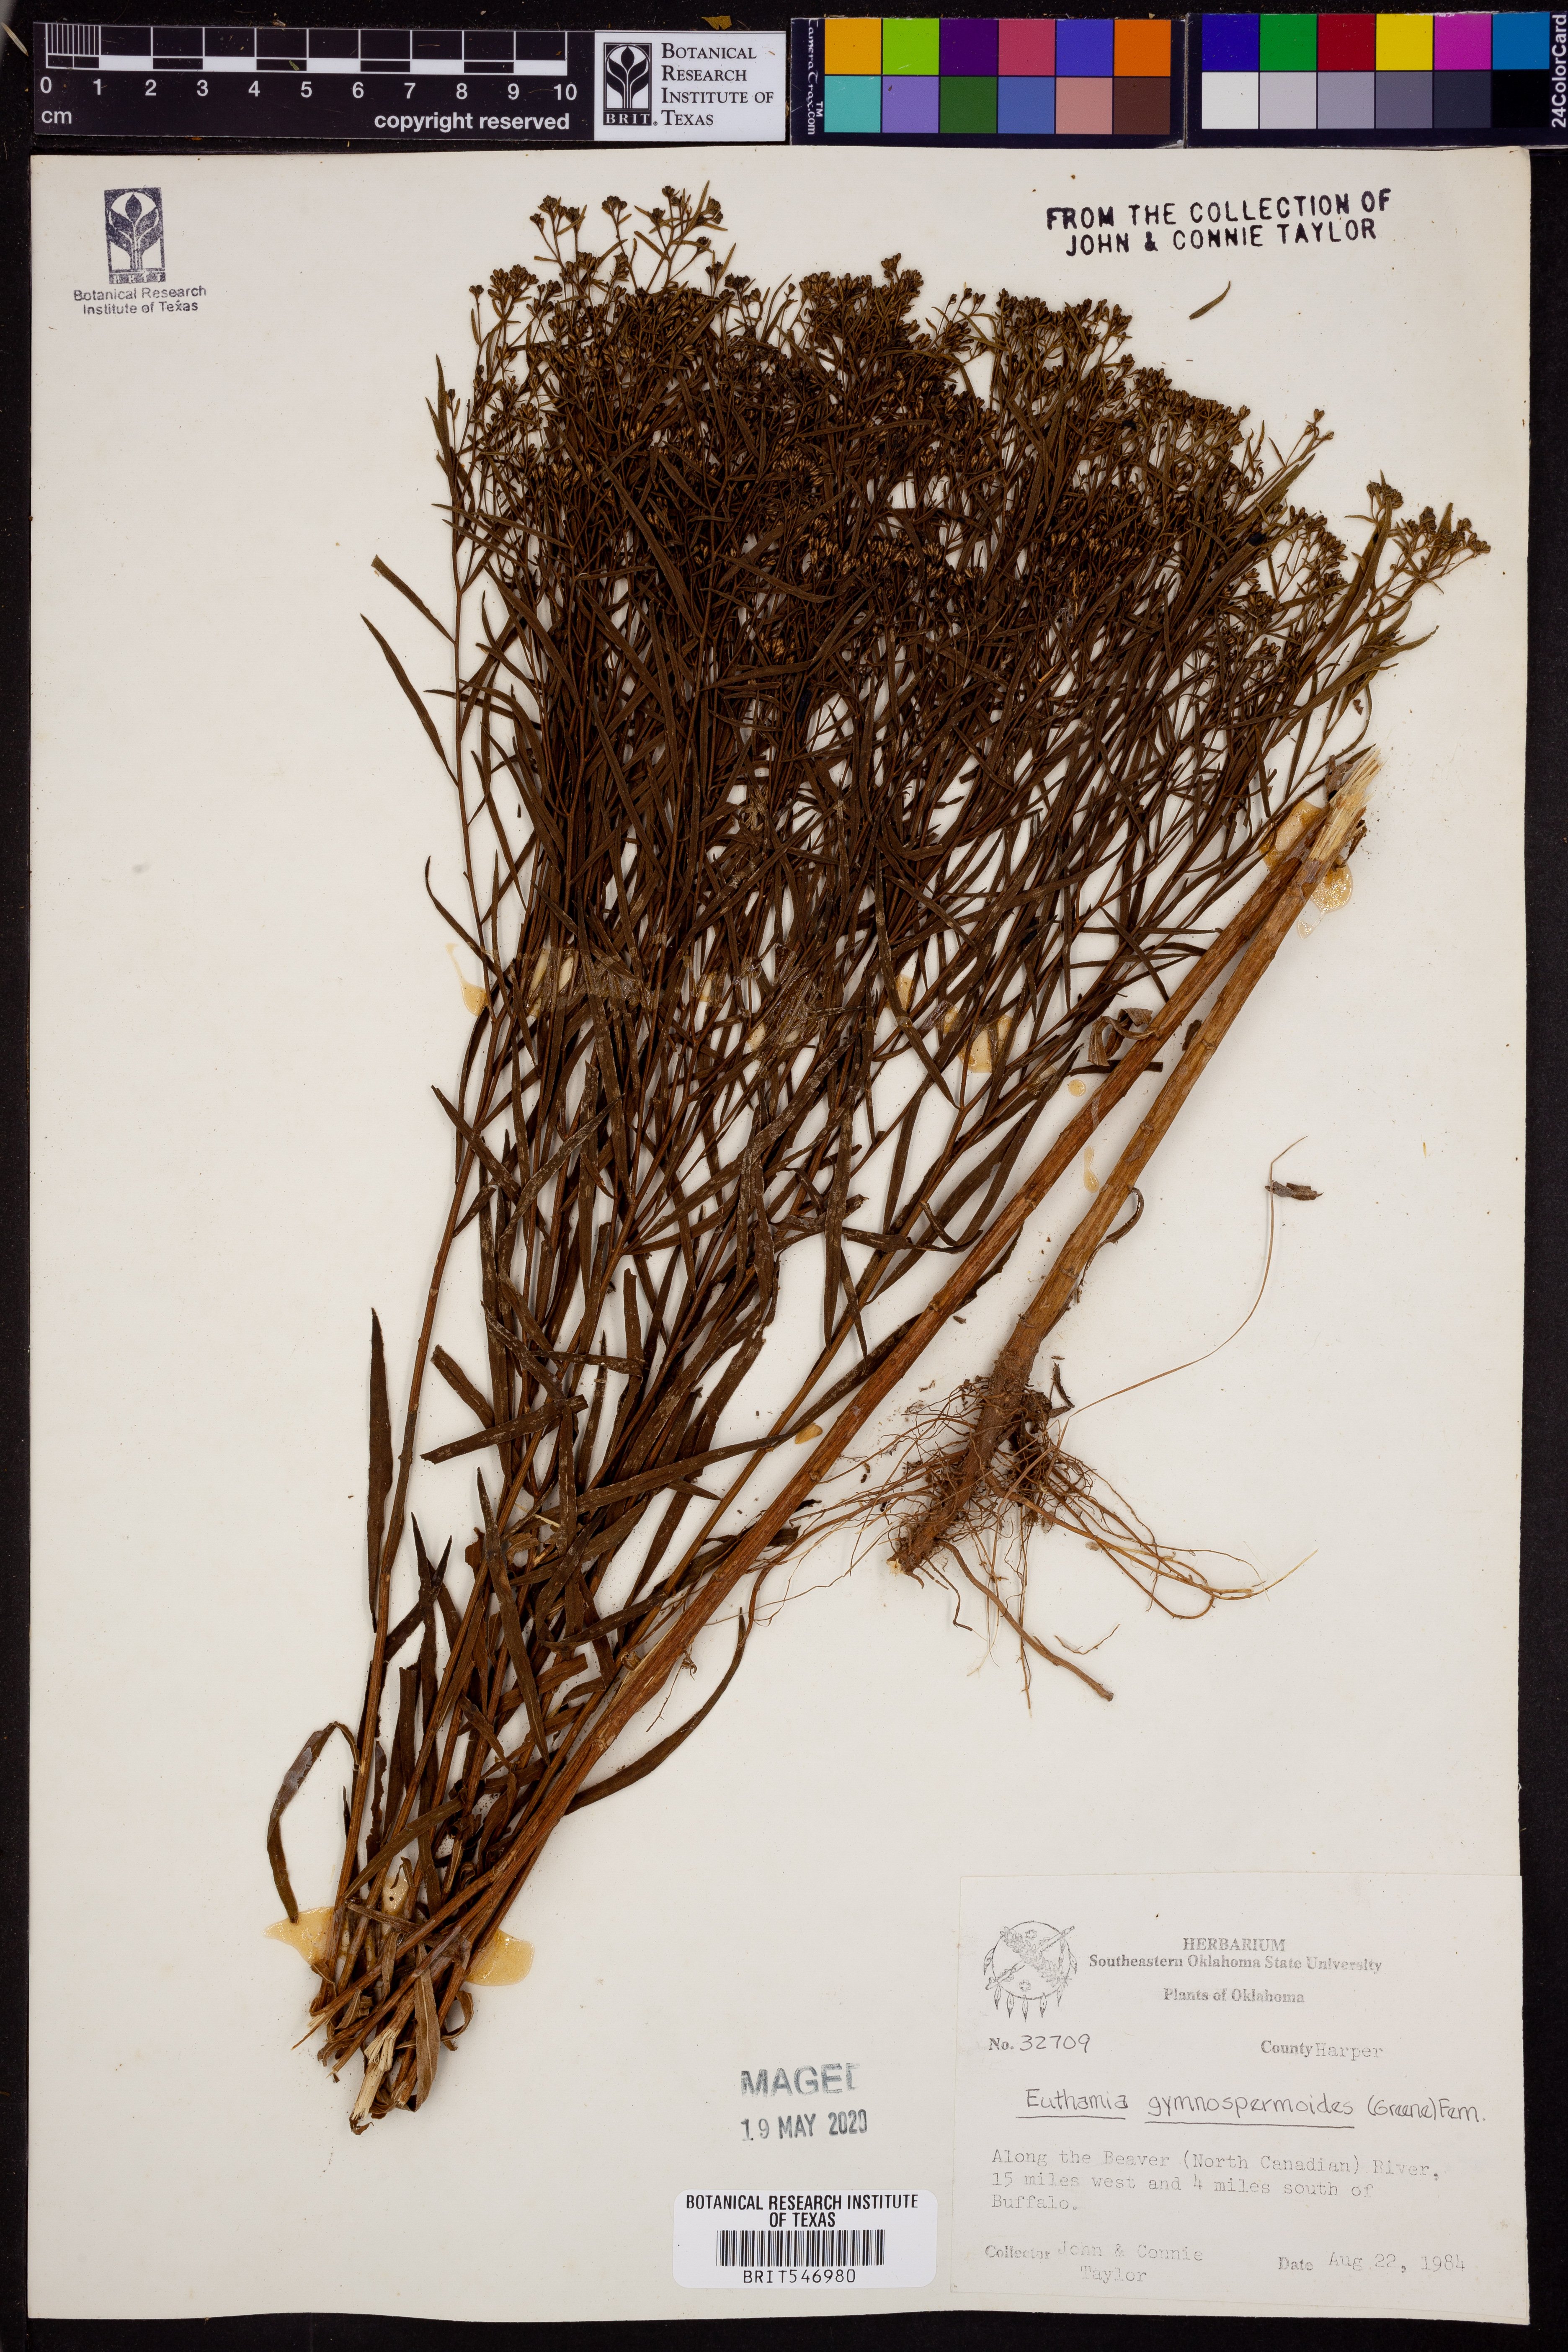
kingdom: Plantae
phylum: Tracheophyta
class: Magnoliopsida
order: Asterales
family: Asteraceae
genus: Euthamia
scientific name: Euthamia gymnospermoides
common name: Great plains goldentop
